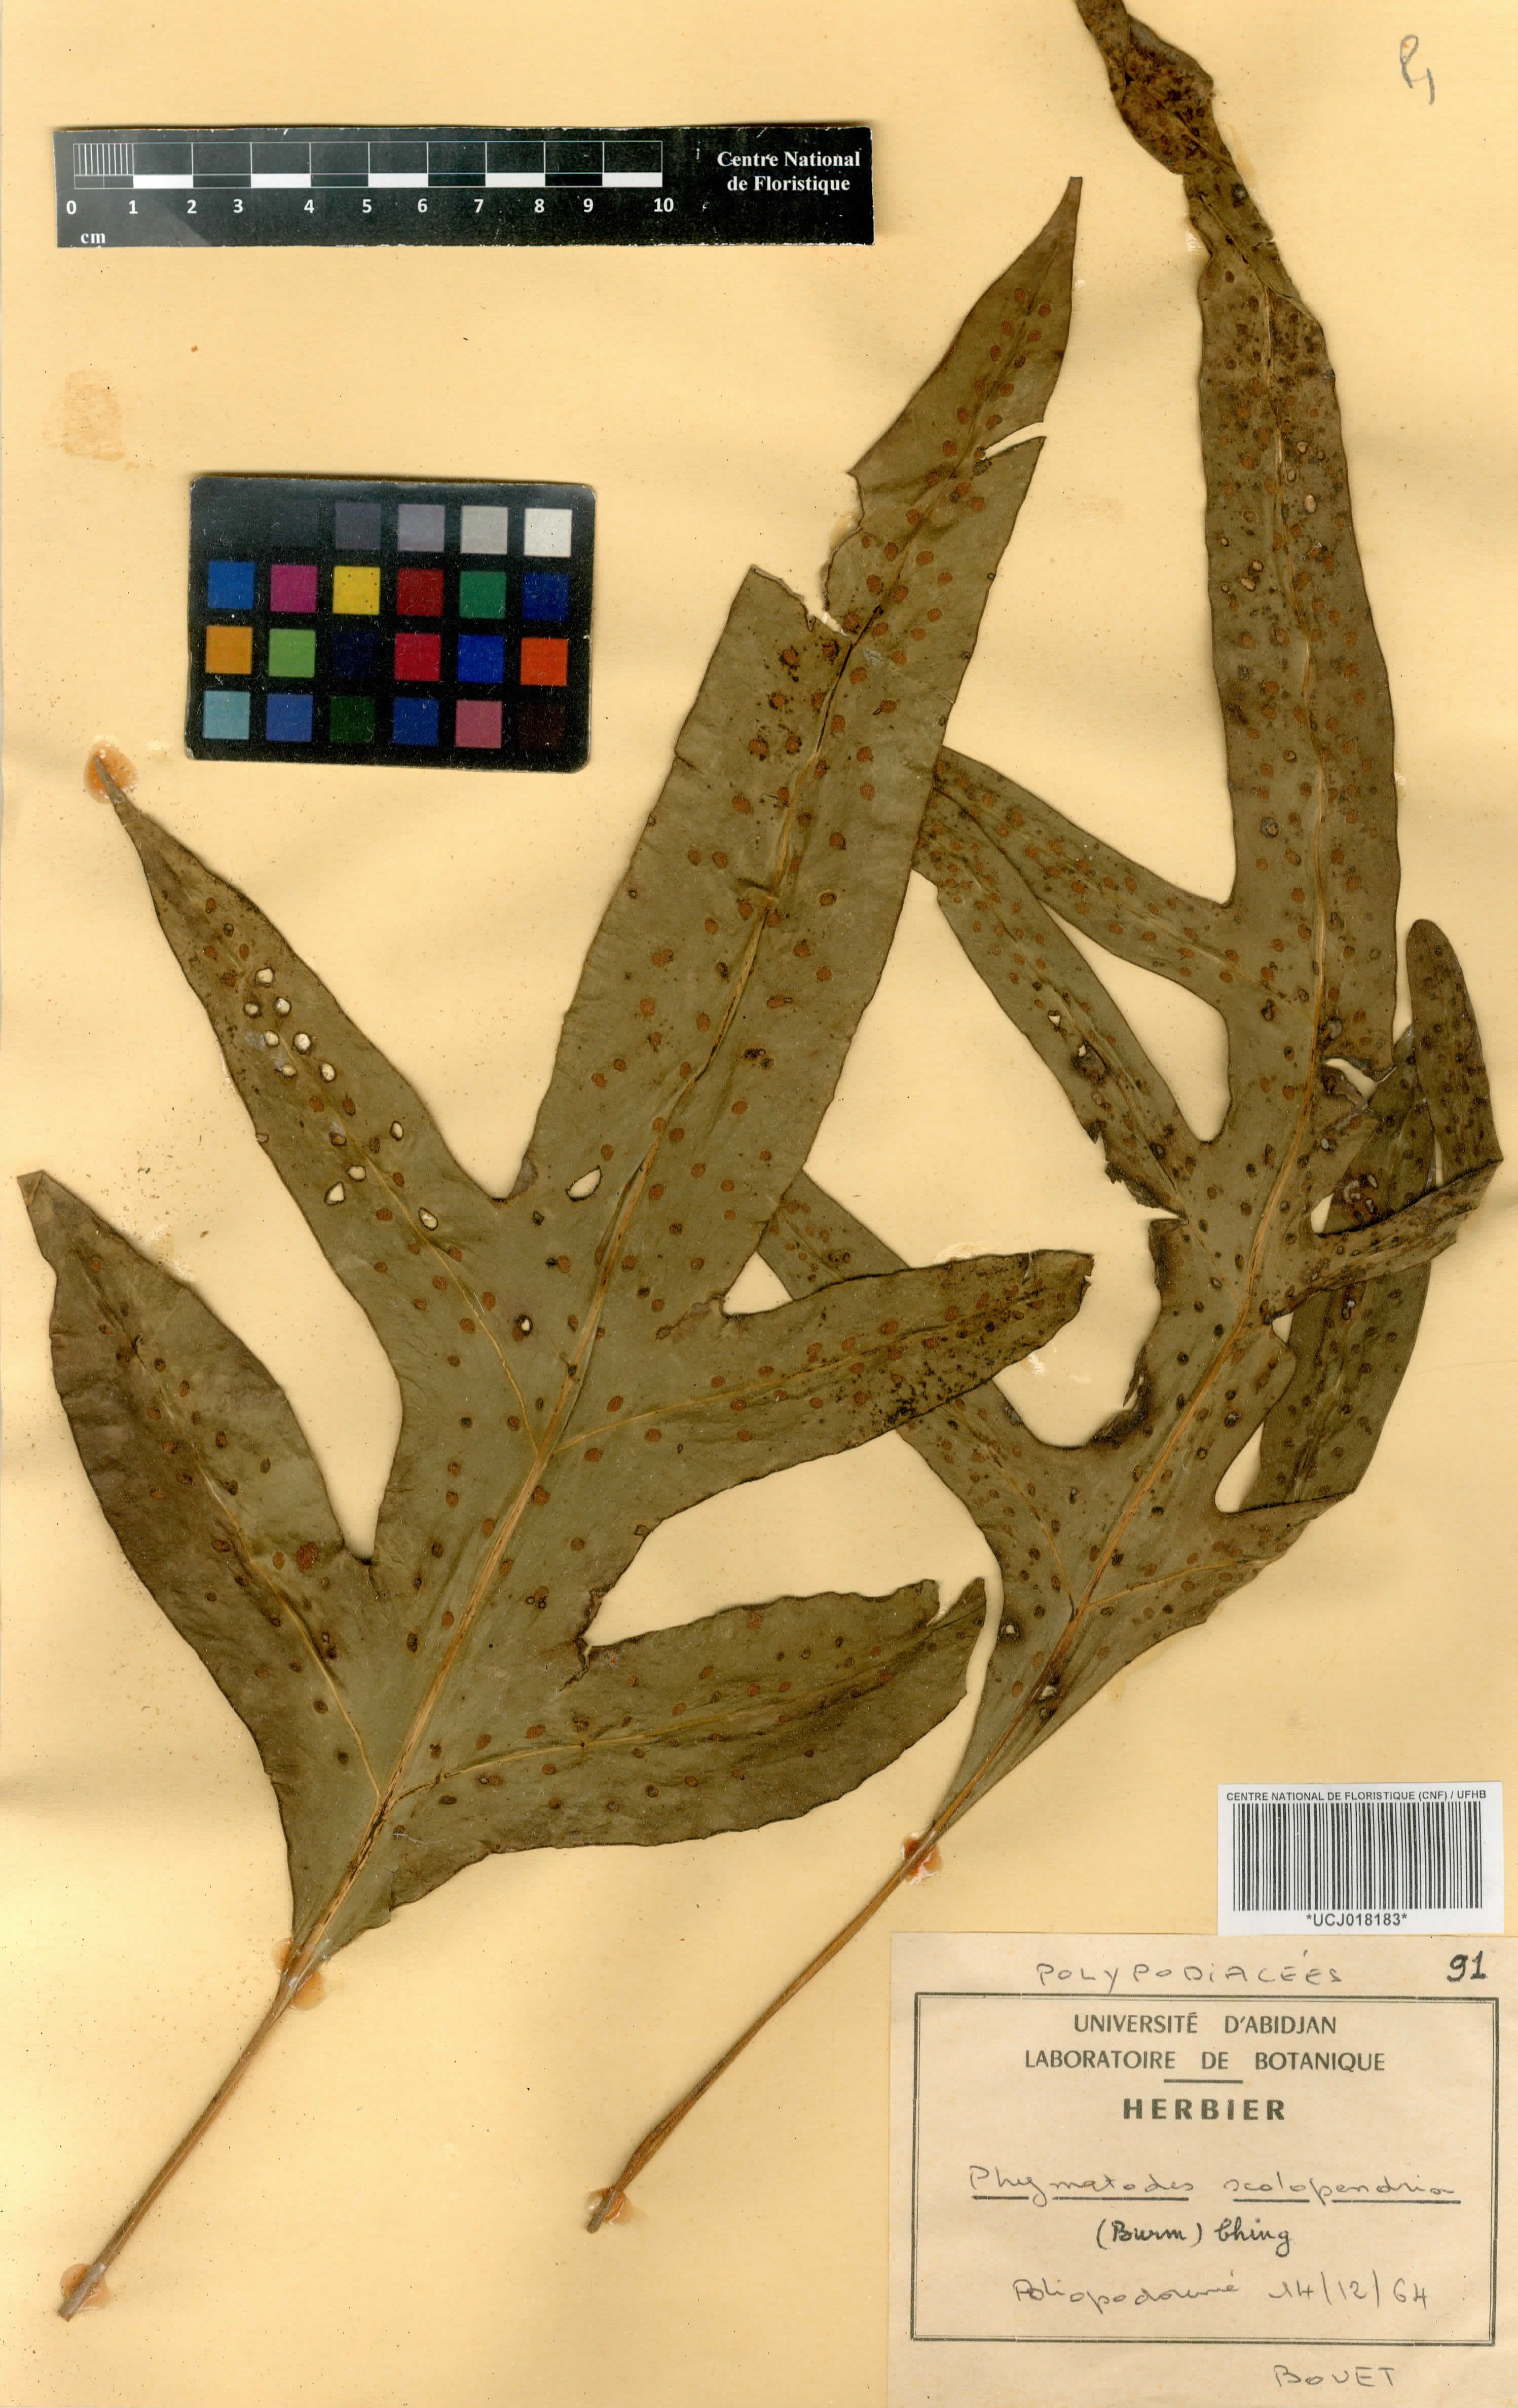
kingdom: Plantae
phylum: Tracheophyta
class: Polypodiopsida
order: Polypodiales
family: Polypodiaceae
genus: Microsorum
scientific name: Microsorum scolopendria
